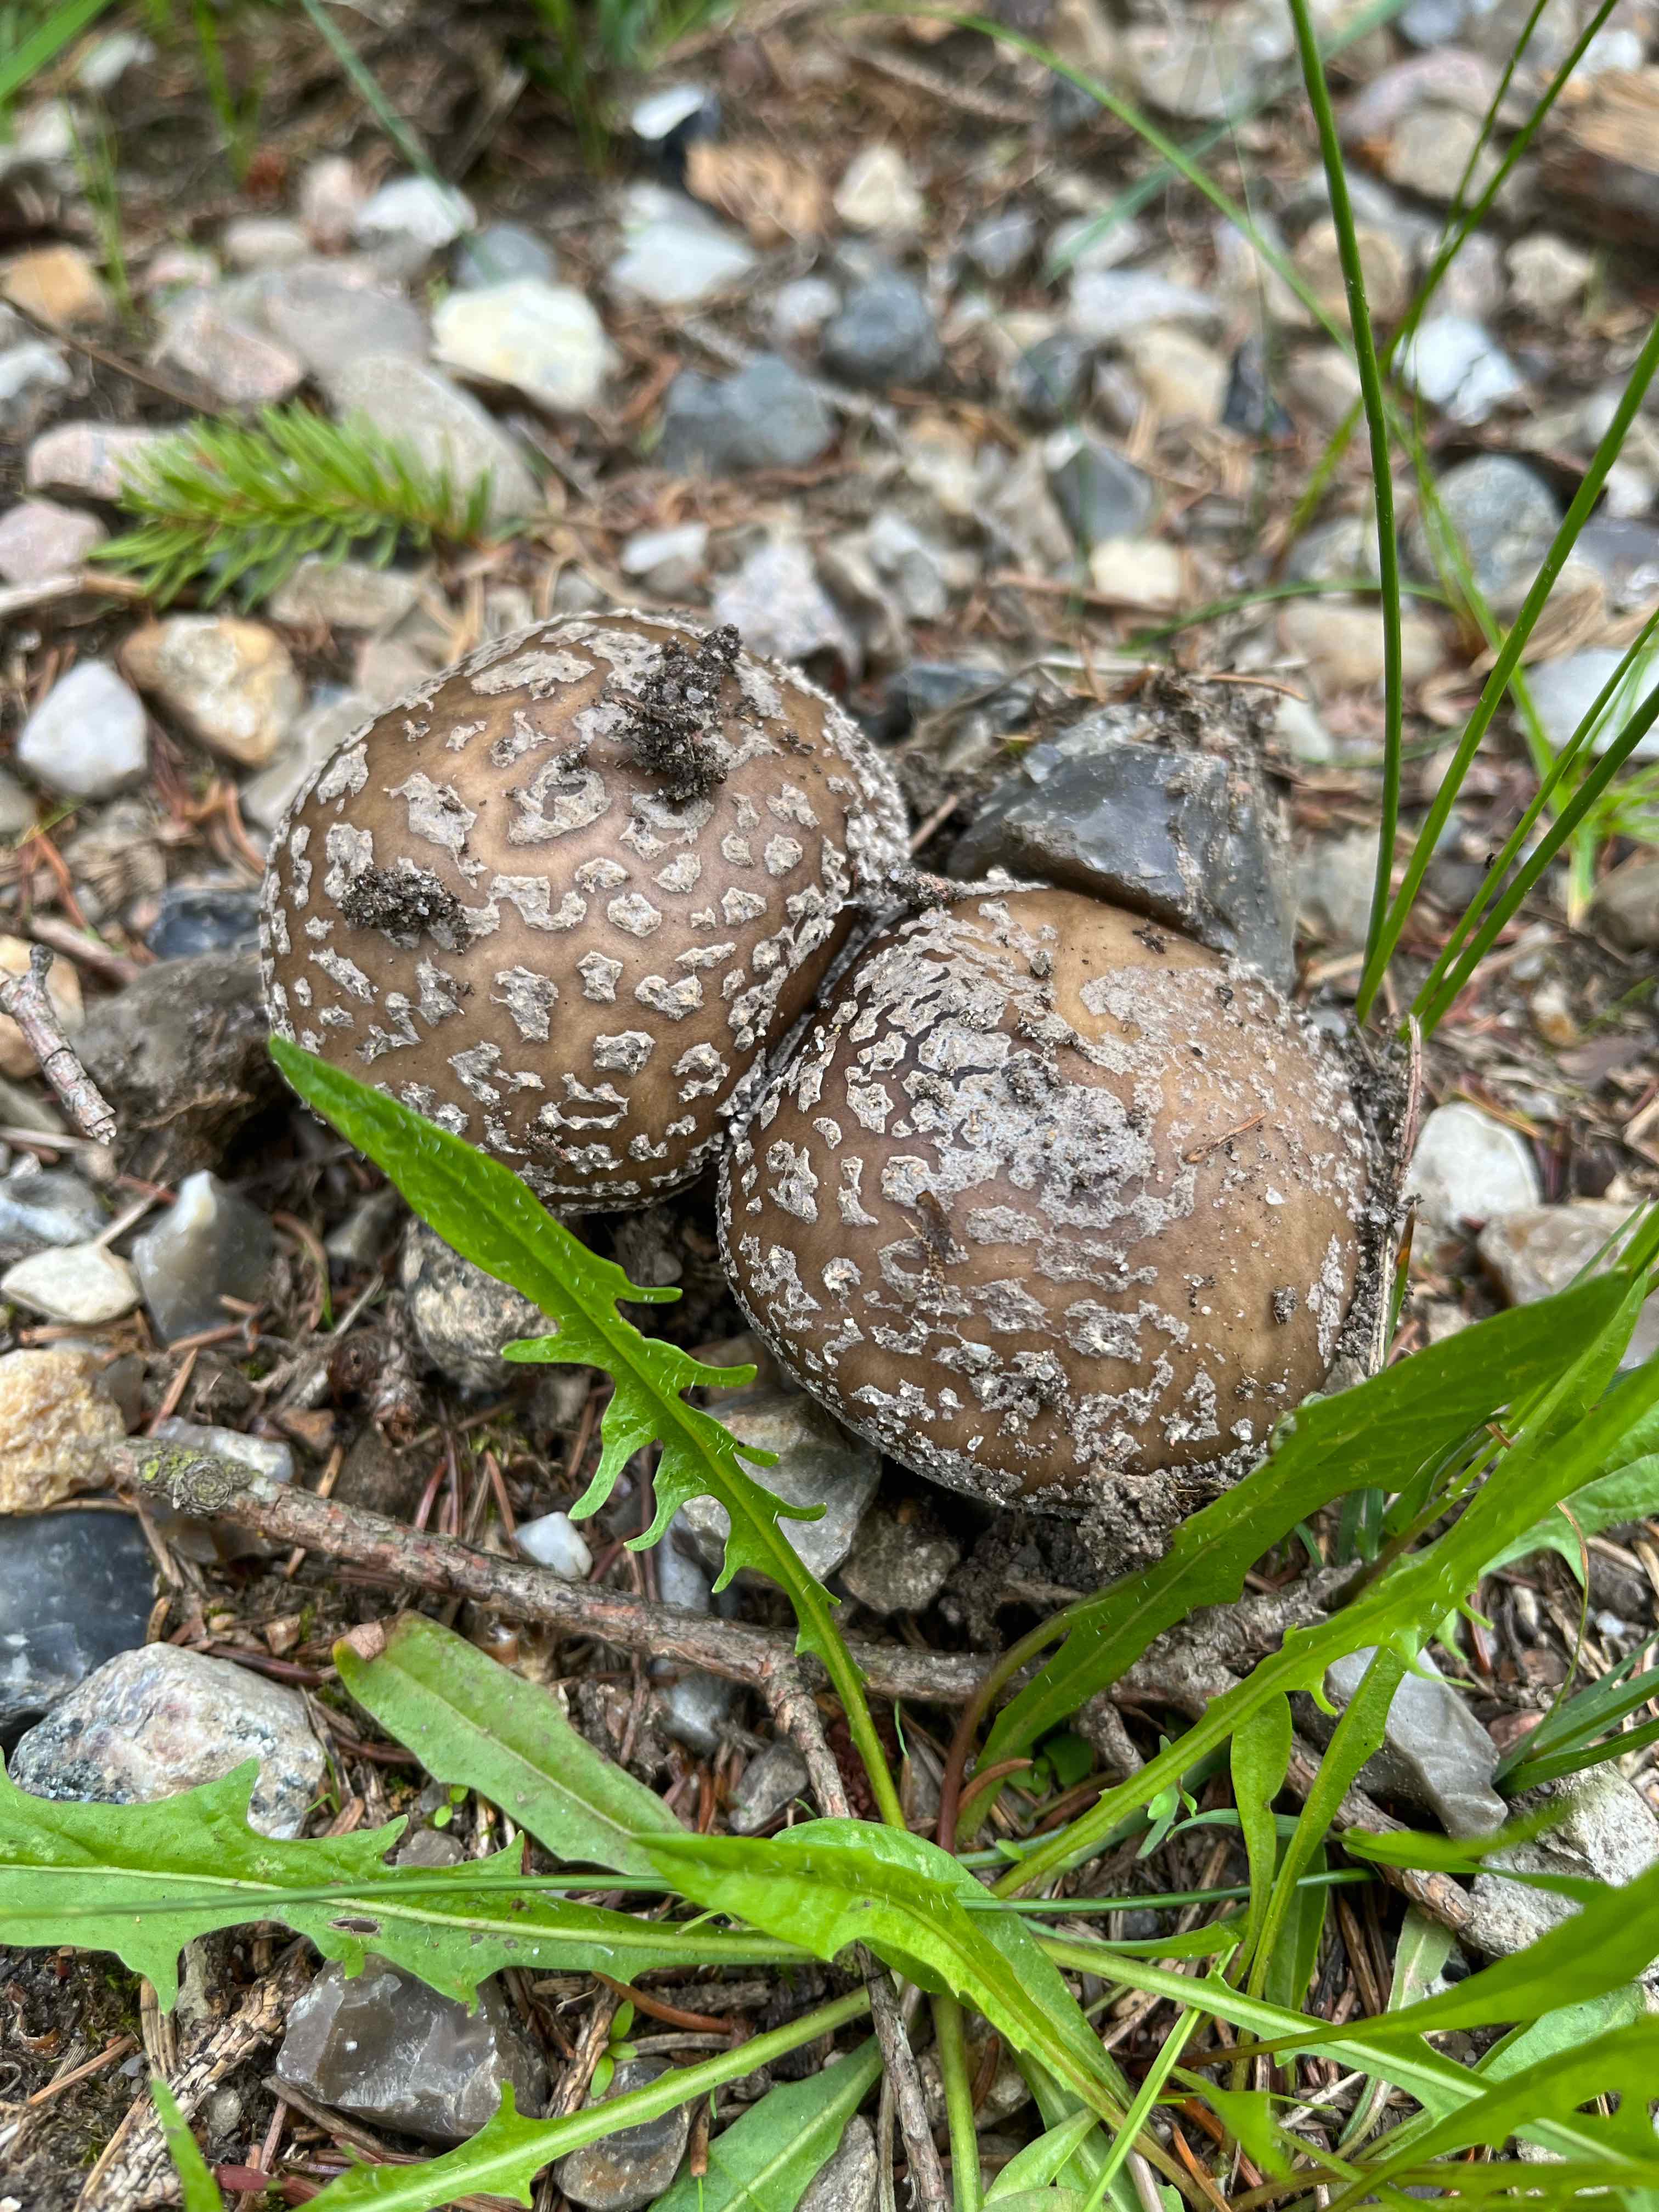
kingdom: Fungi
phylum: Basidiomycota
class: Agaricomycetes
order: Agaricales
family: Amanitaceae
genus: Amanita
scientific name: Amanita
